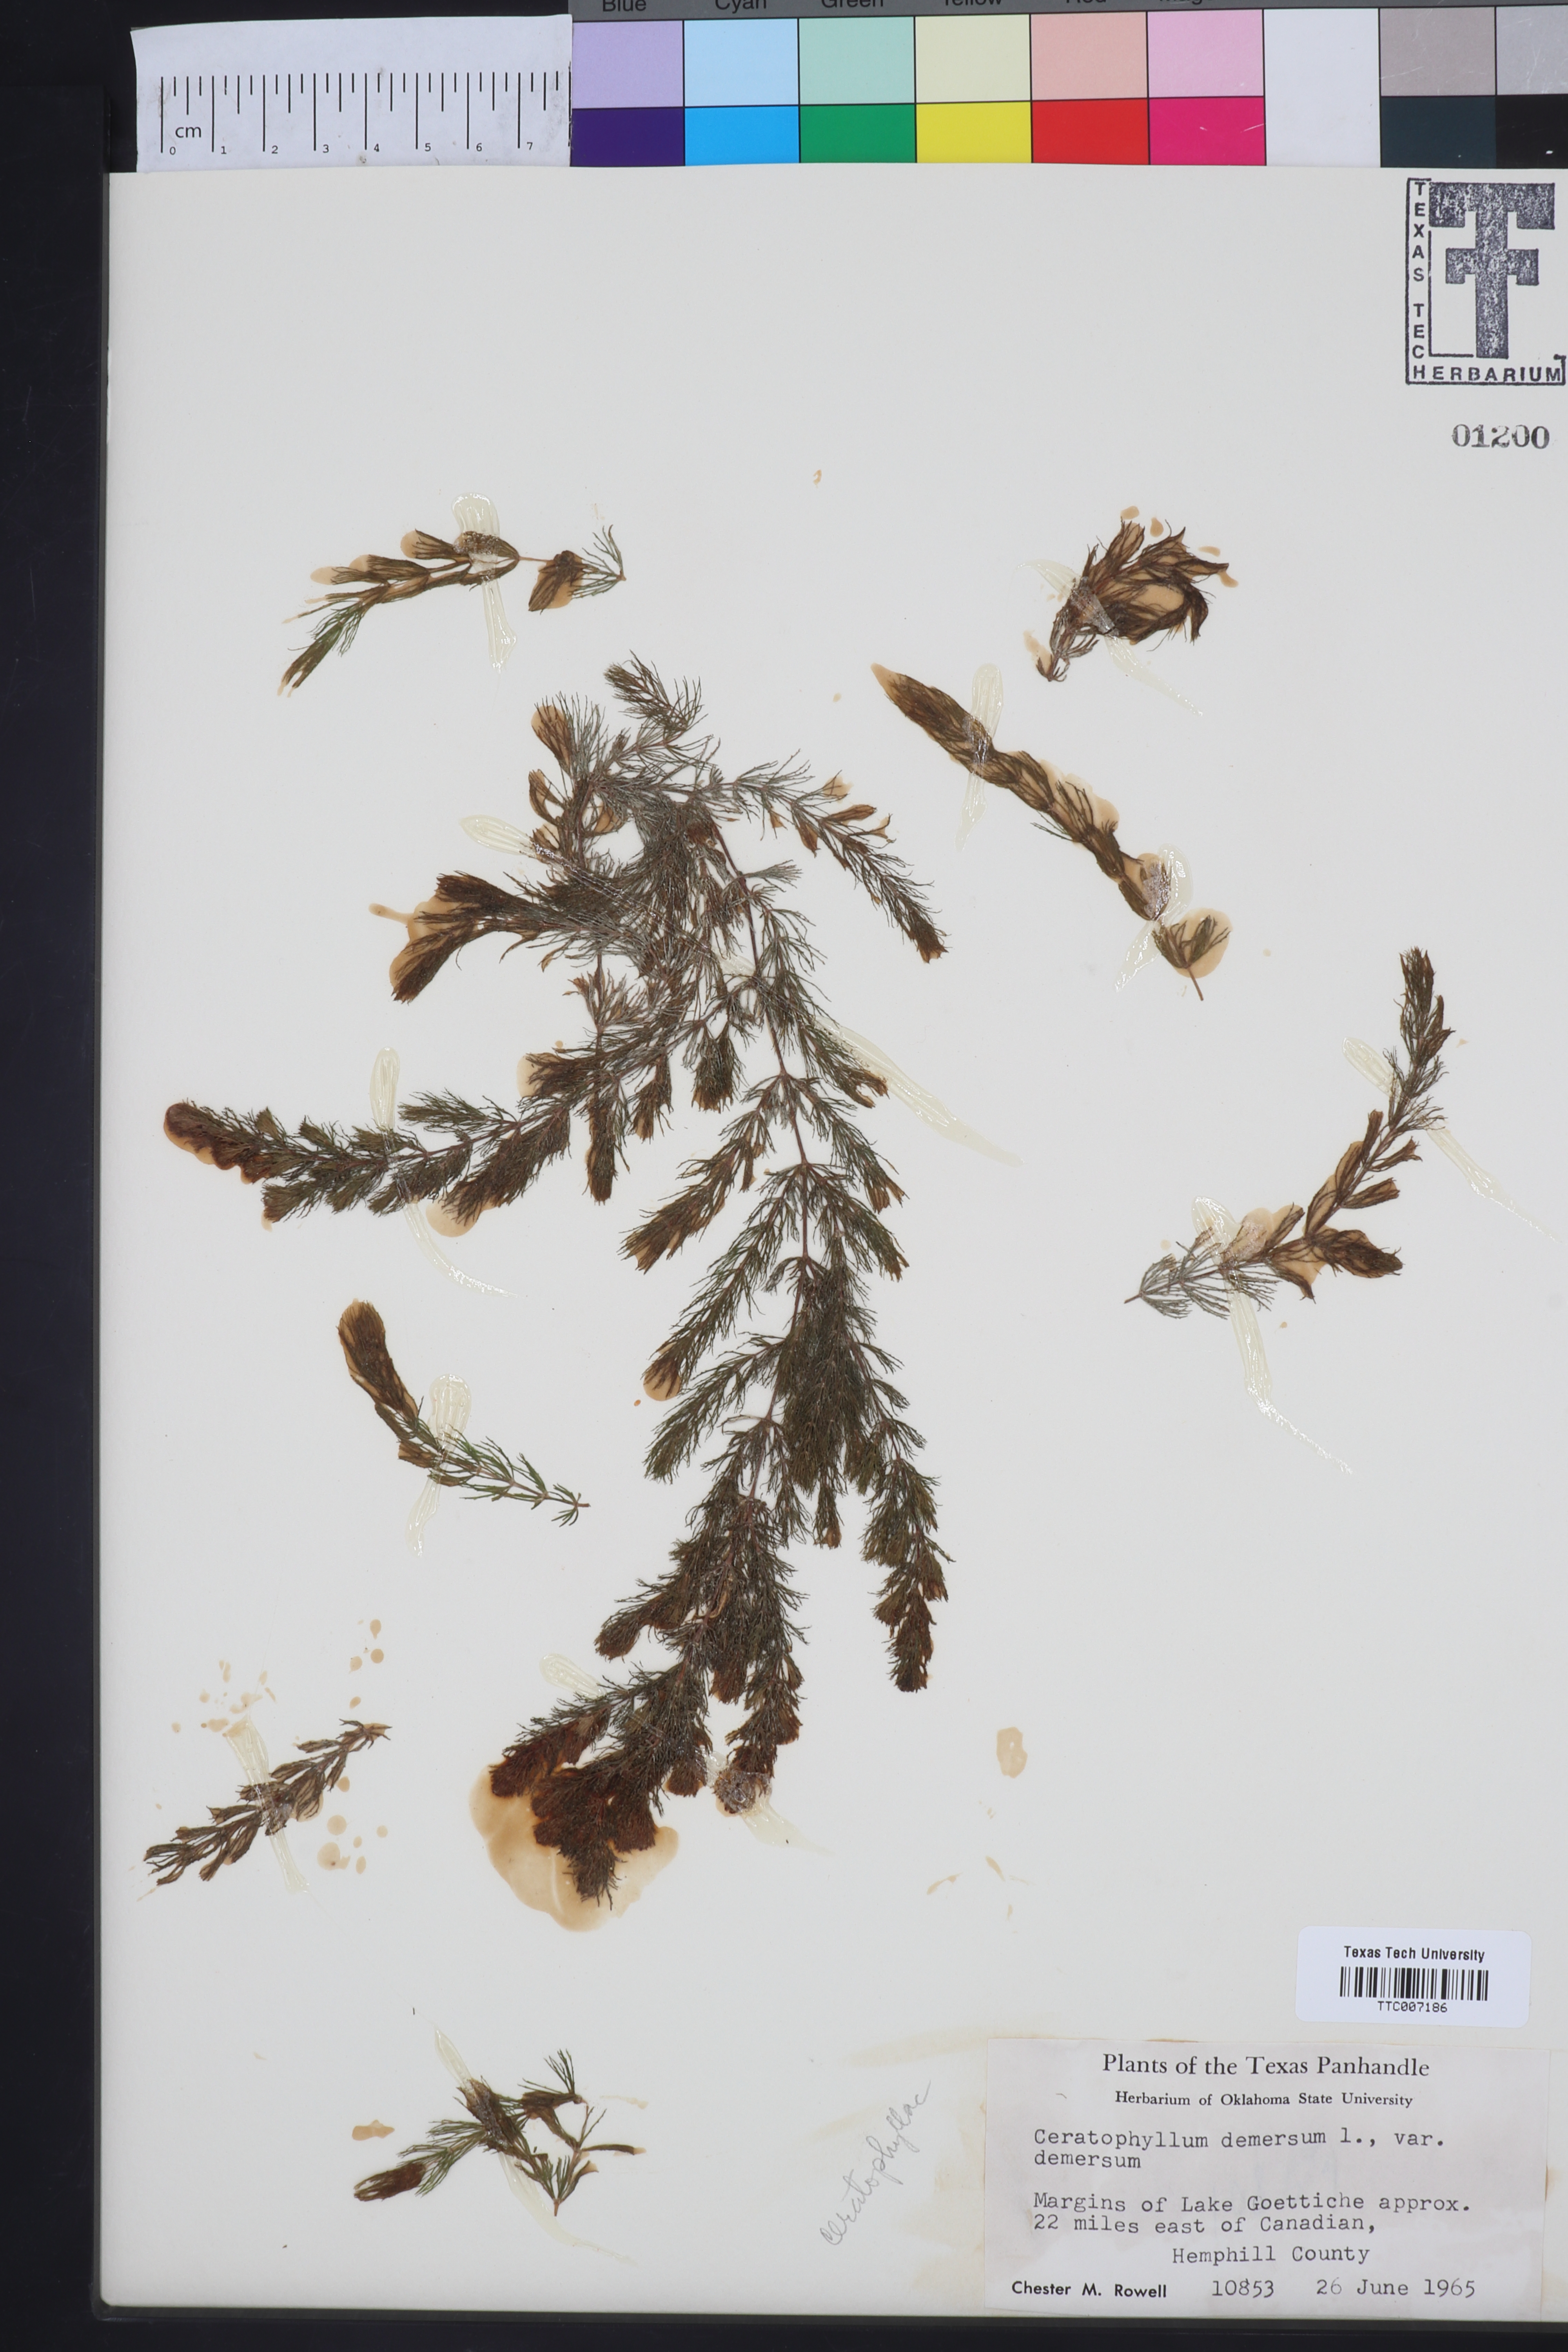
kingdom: Plantae
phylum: Tracheophyta
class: Magnoliopsida
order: Ceratophyllales
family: Ceratophyllaceae
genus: Ceratophyllum
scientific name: Ceratophyllum demersum
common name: Rigid hornwort
